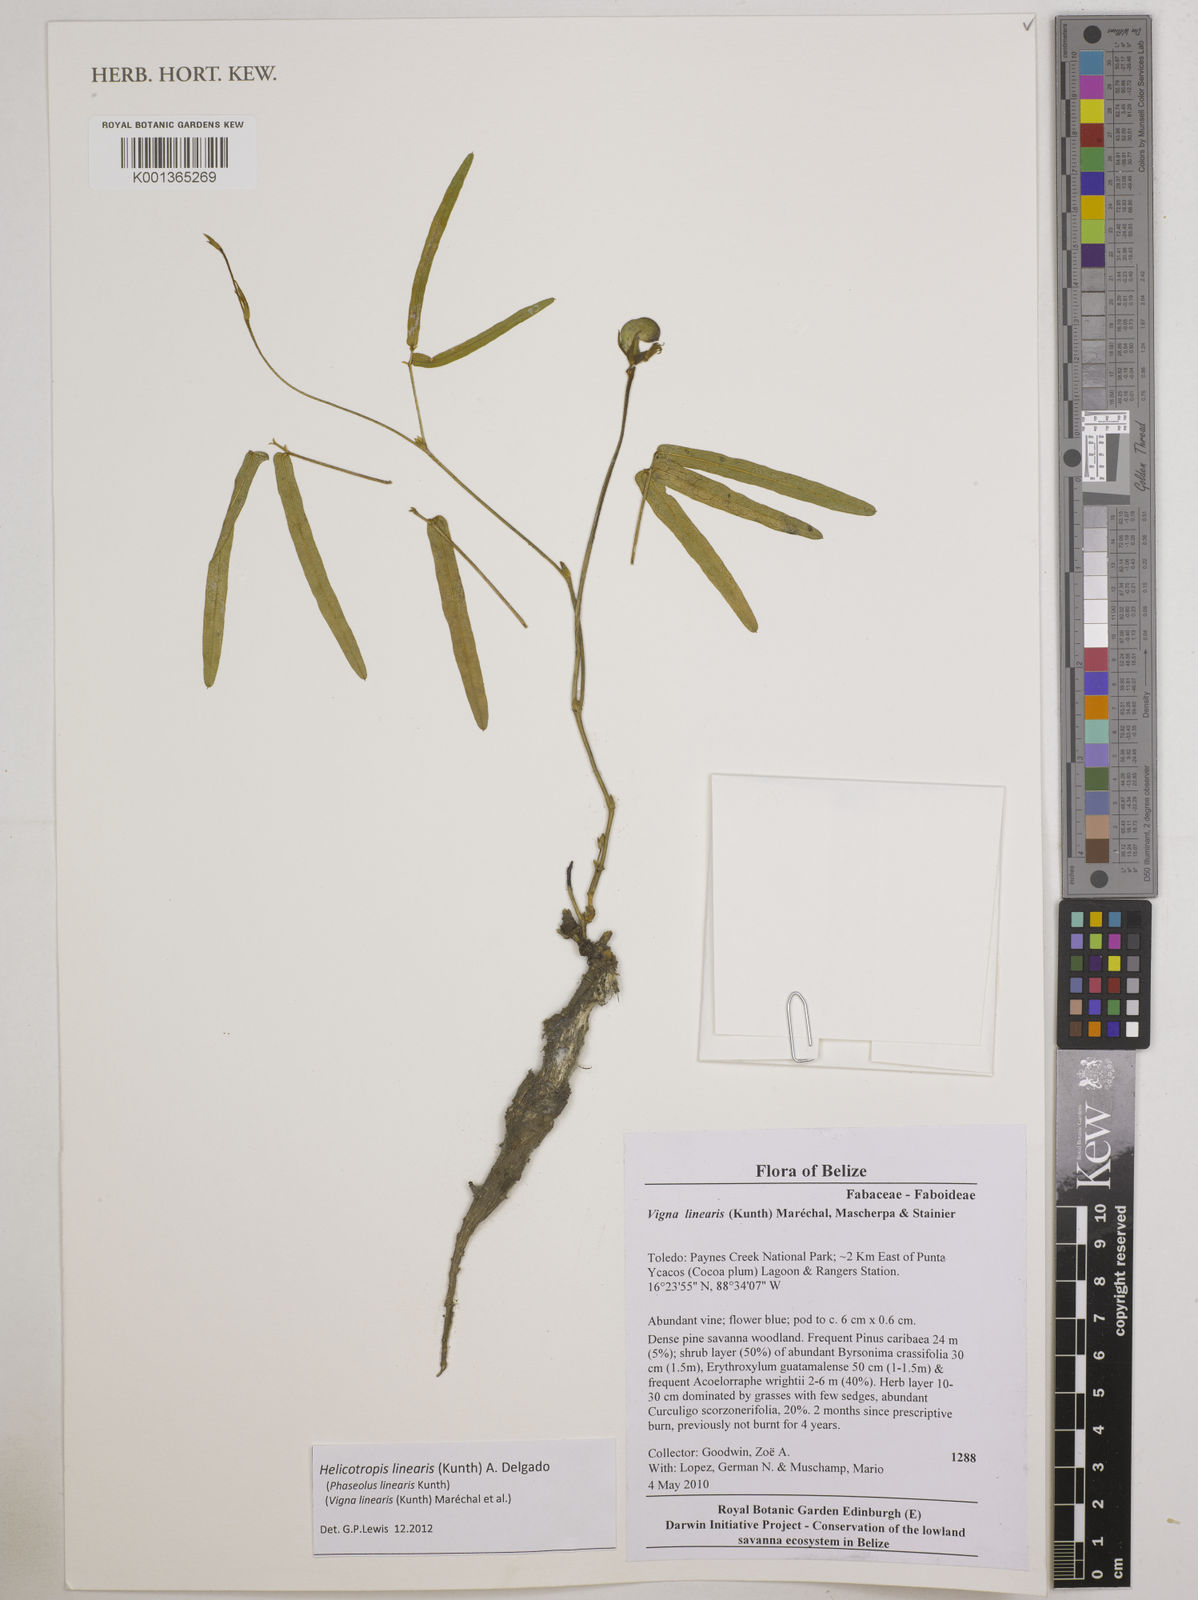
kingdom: Plantae
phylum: Tracheophyta
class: Magnoliopsida
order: Fabales
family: Fabaceae
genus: Helicotropis
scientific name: Helicotropis linearis
